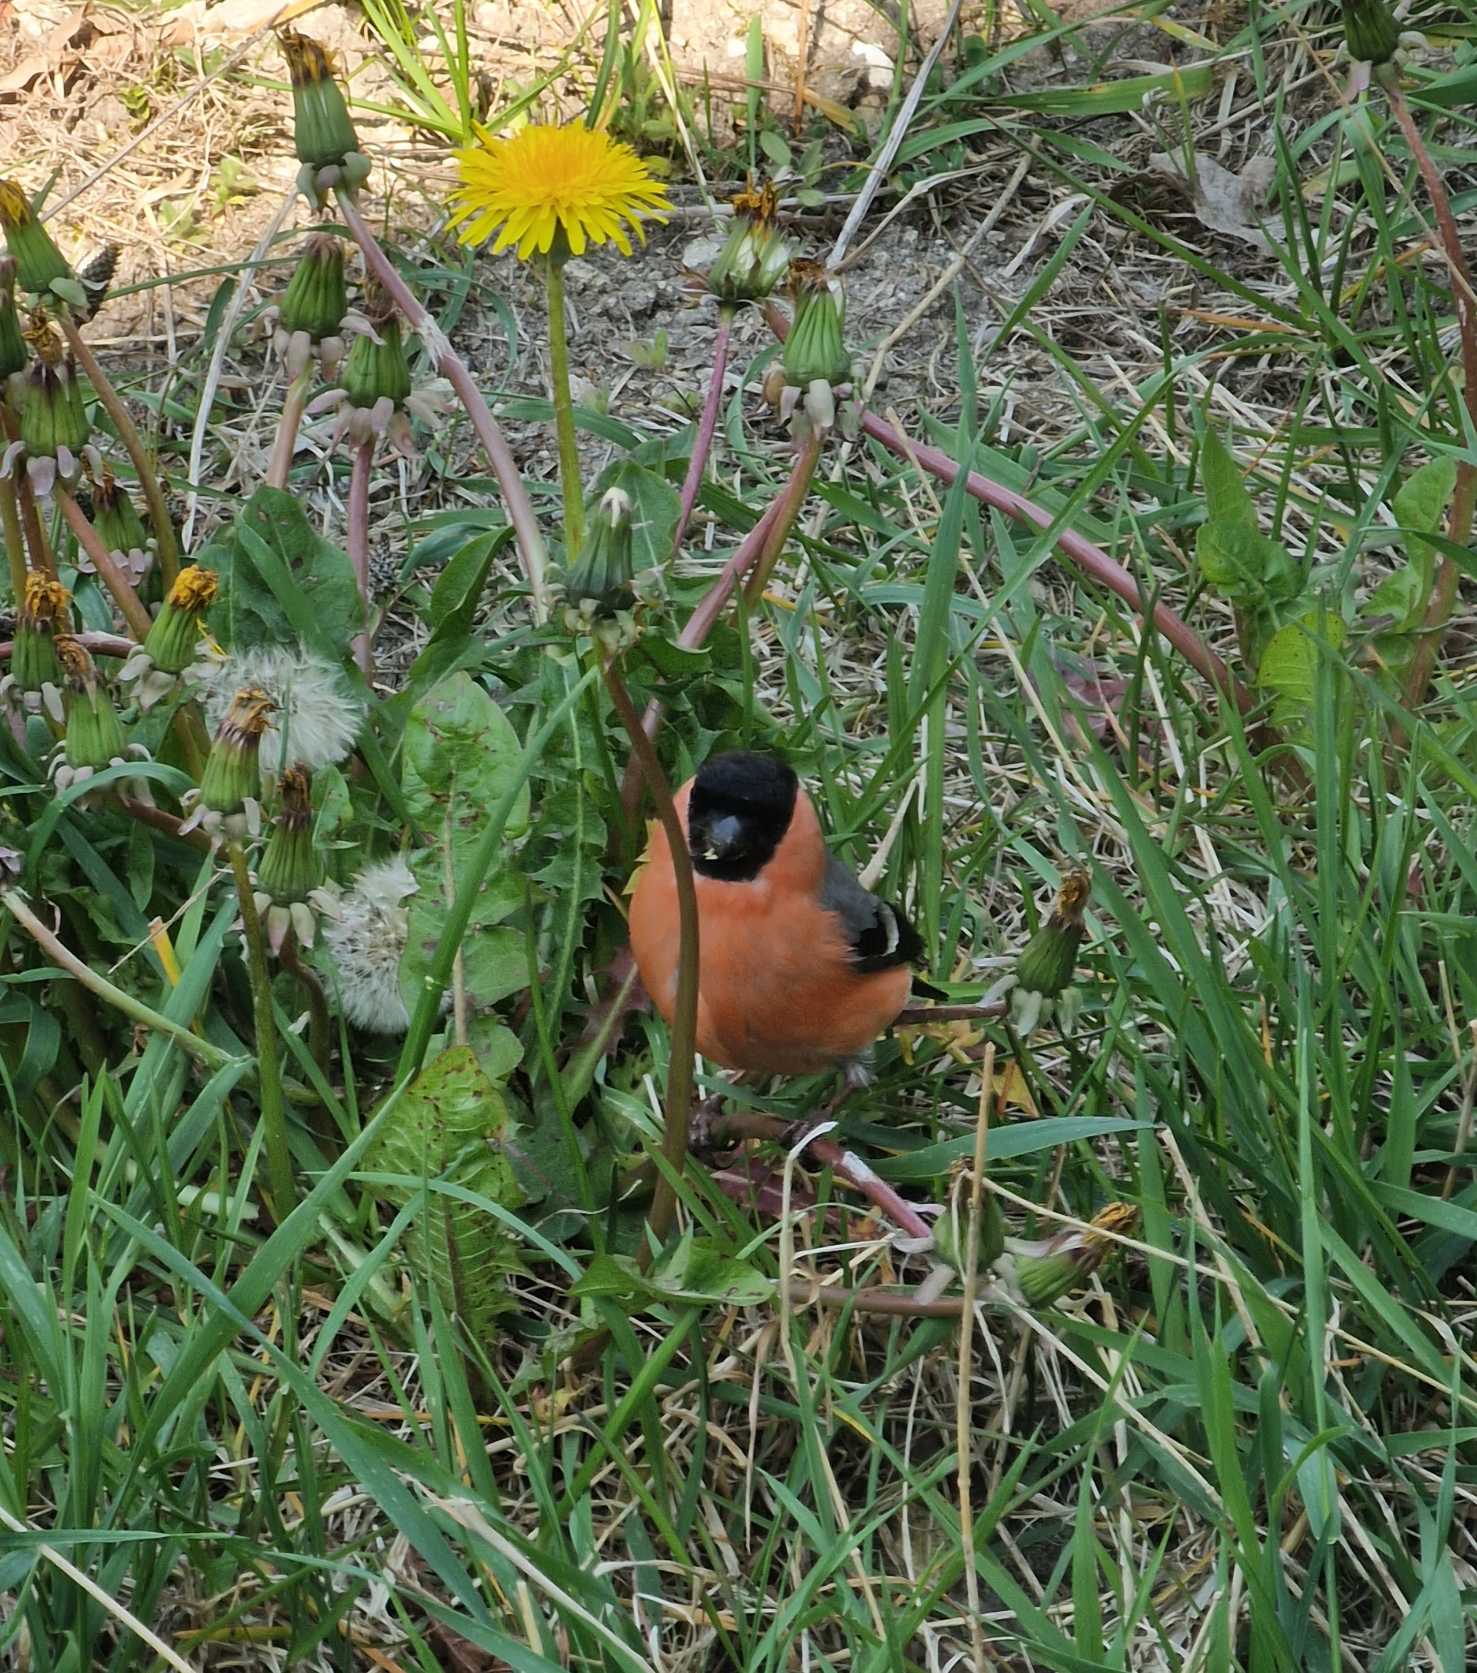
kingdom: Animalia
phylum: Chordata
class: Aves
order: Passeriformes
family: Fringillidae
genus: Pyrrhula
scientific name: Pyrrhula pyrrhula
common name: Dompap
